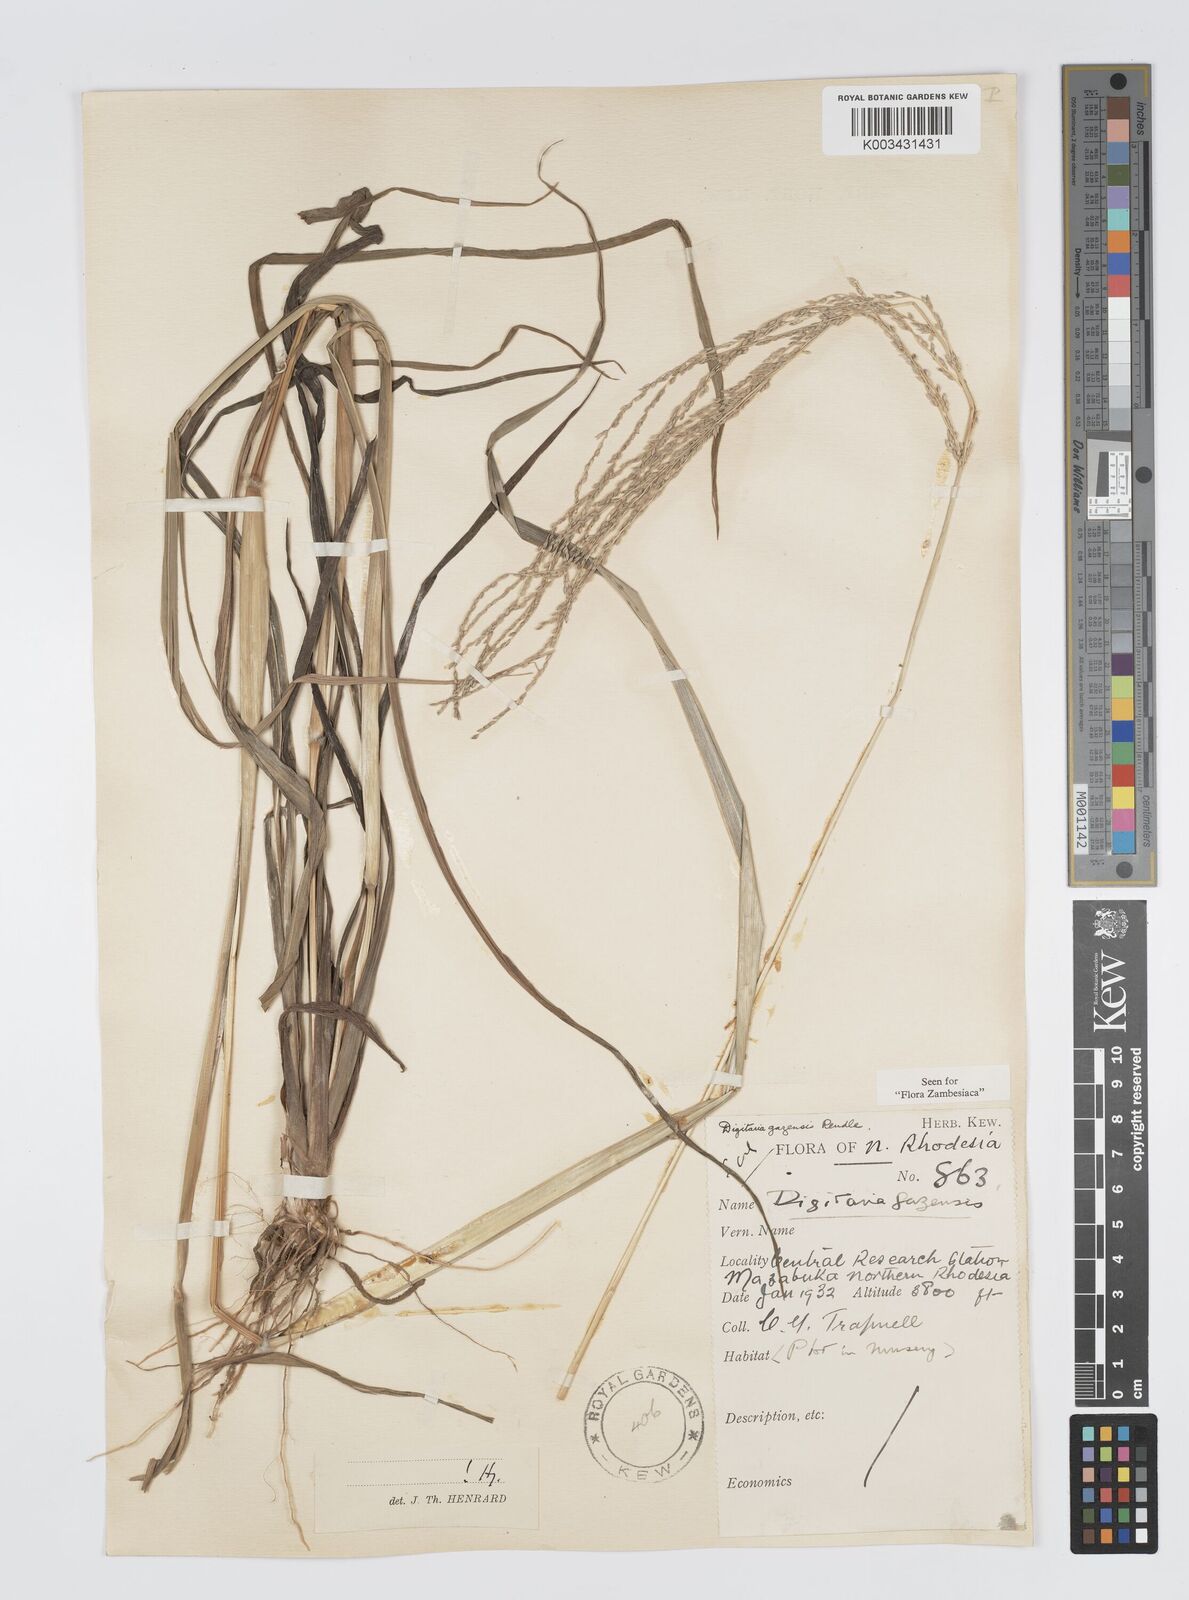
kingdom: Plantae
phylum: Tracheophyta
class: Liliopsida
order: Poales
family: Poaceae
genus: Digitaria
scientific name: Digitaria gazensis
